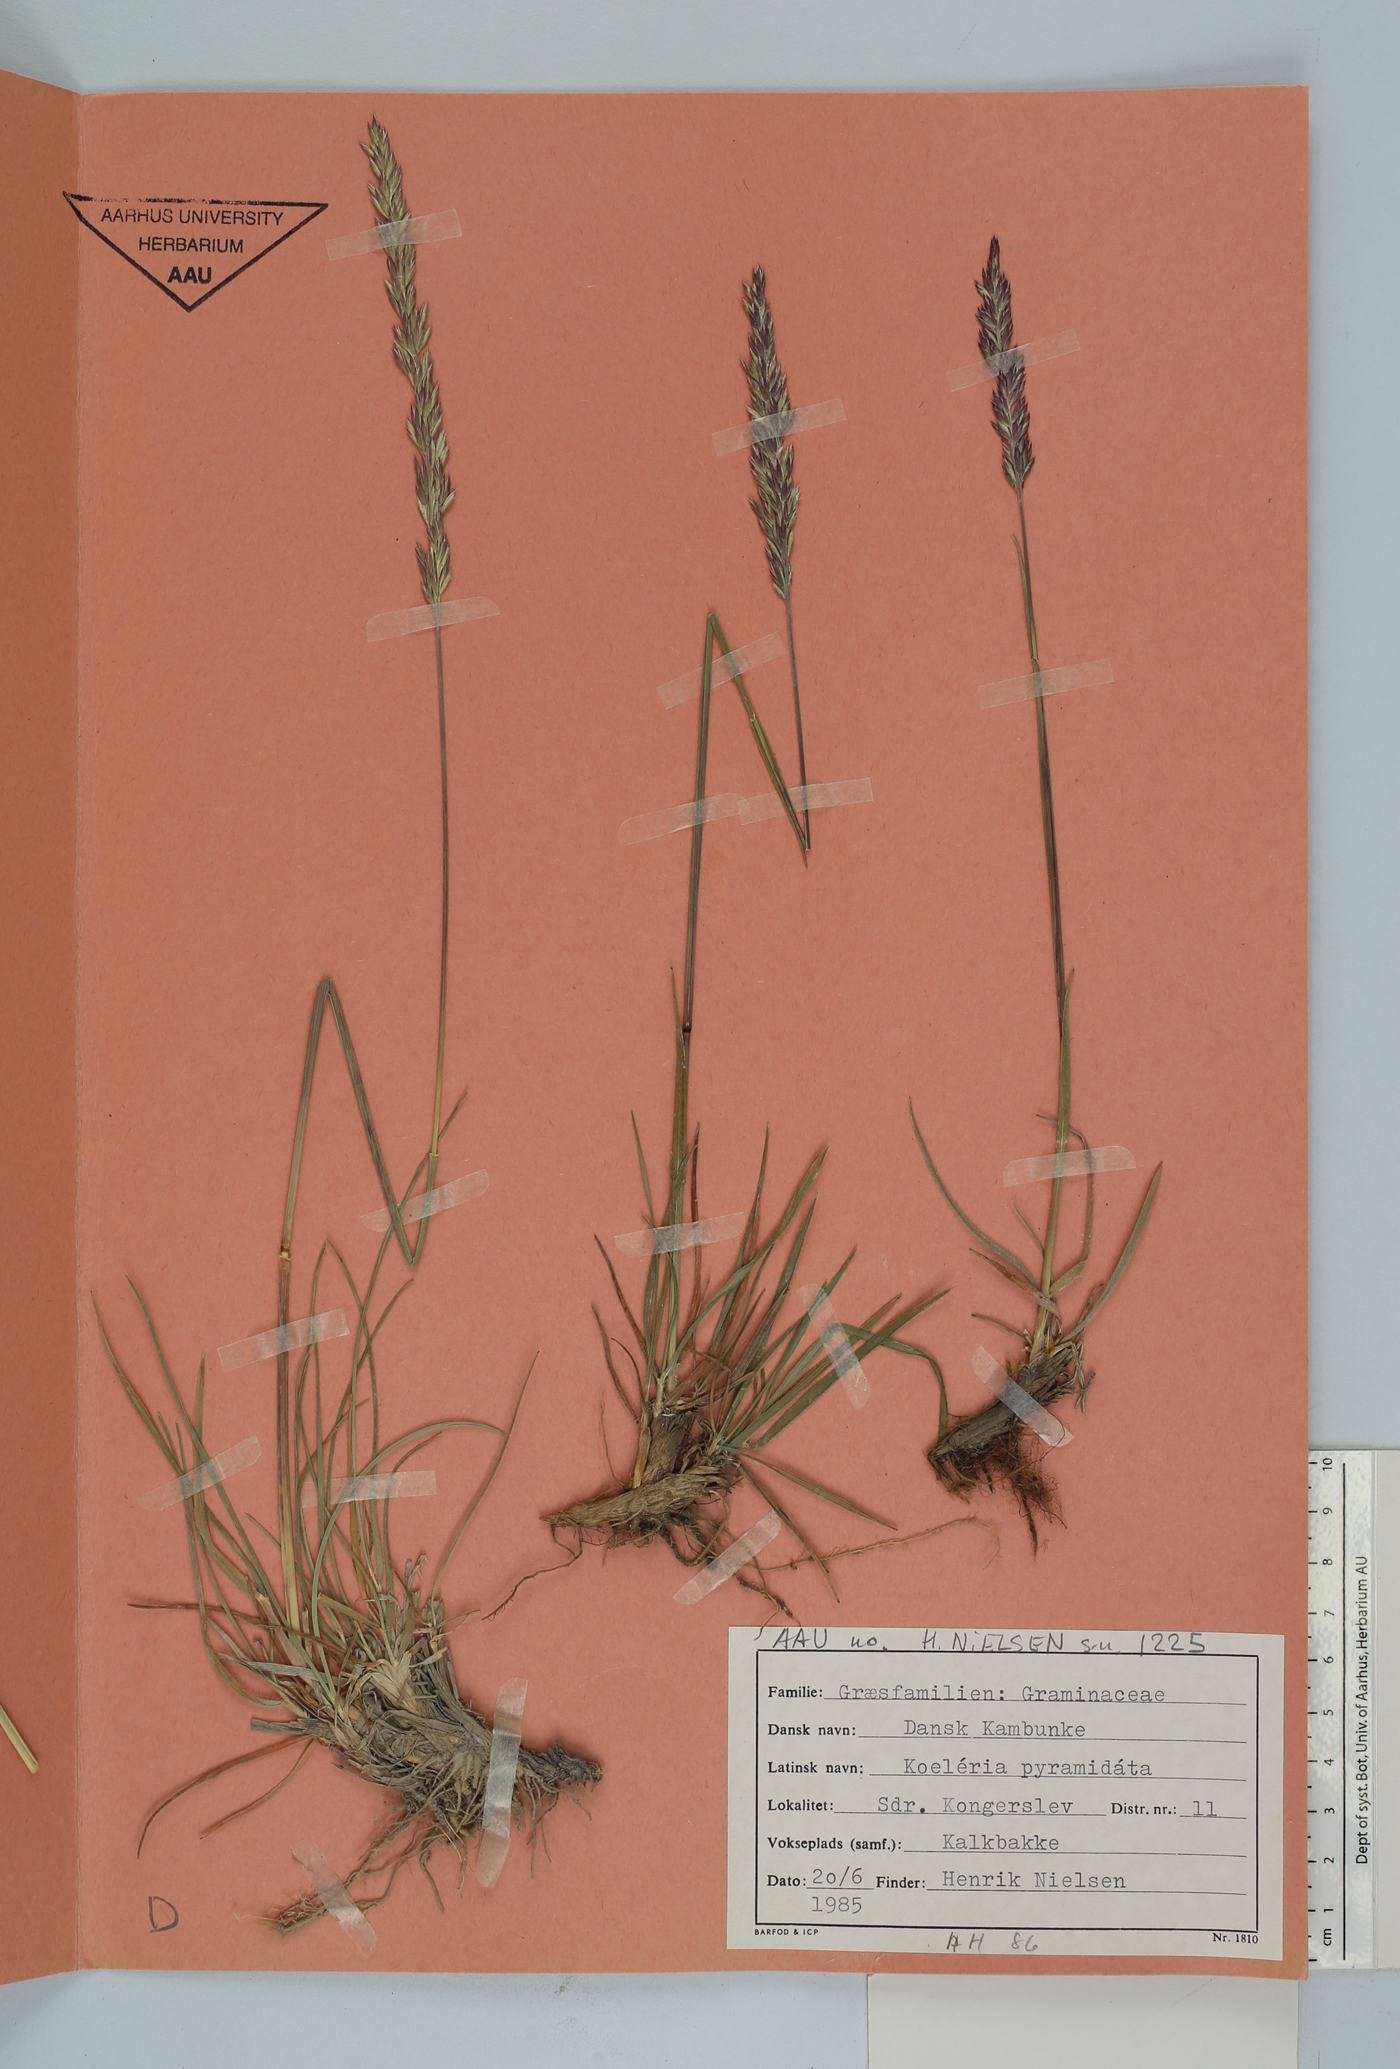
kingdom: Plantae
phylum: Tracheophyta
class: Liliopsida
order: Poales
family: Poaceae
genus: Koeleria
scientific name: Koeleria pyramidata
